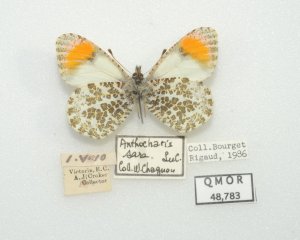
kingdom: Animalia
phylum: Arthropoda
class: Insecta
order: Lepidoptera
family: Pieridae
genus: Anthocharis
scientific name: Anthocharis sara
